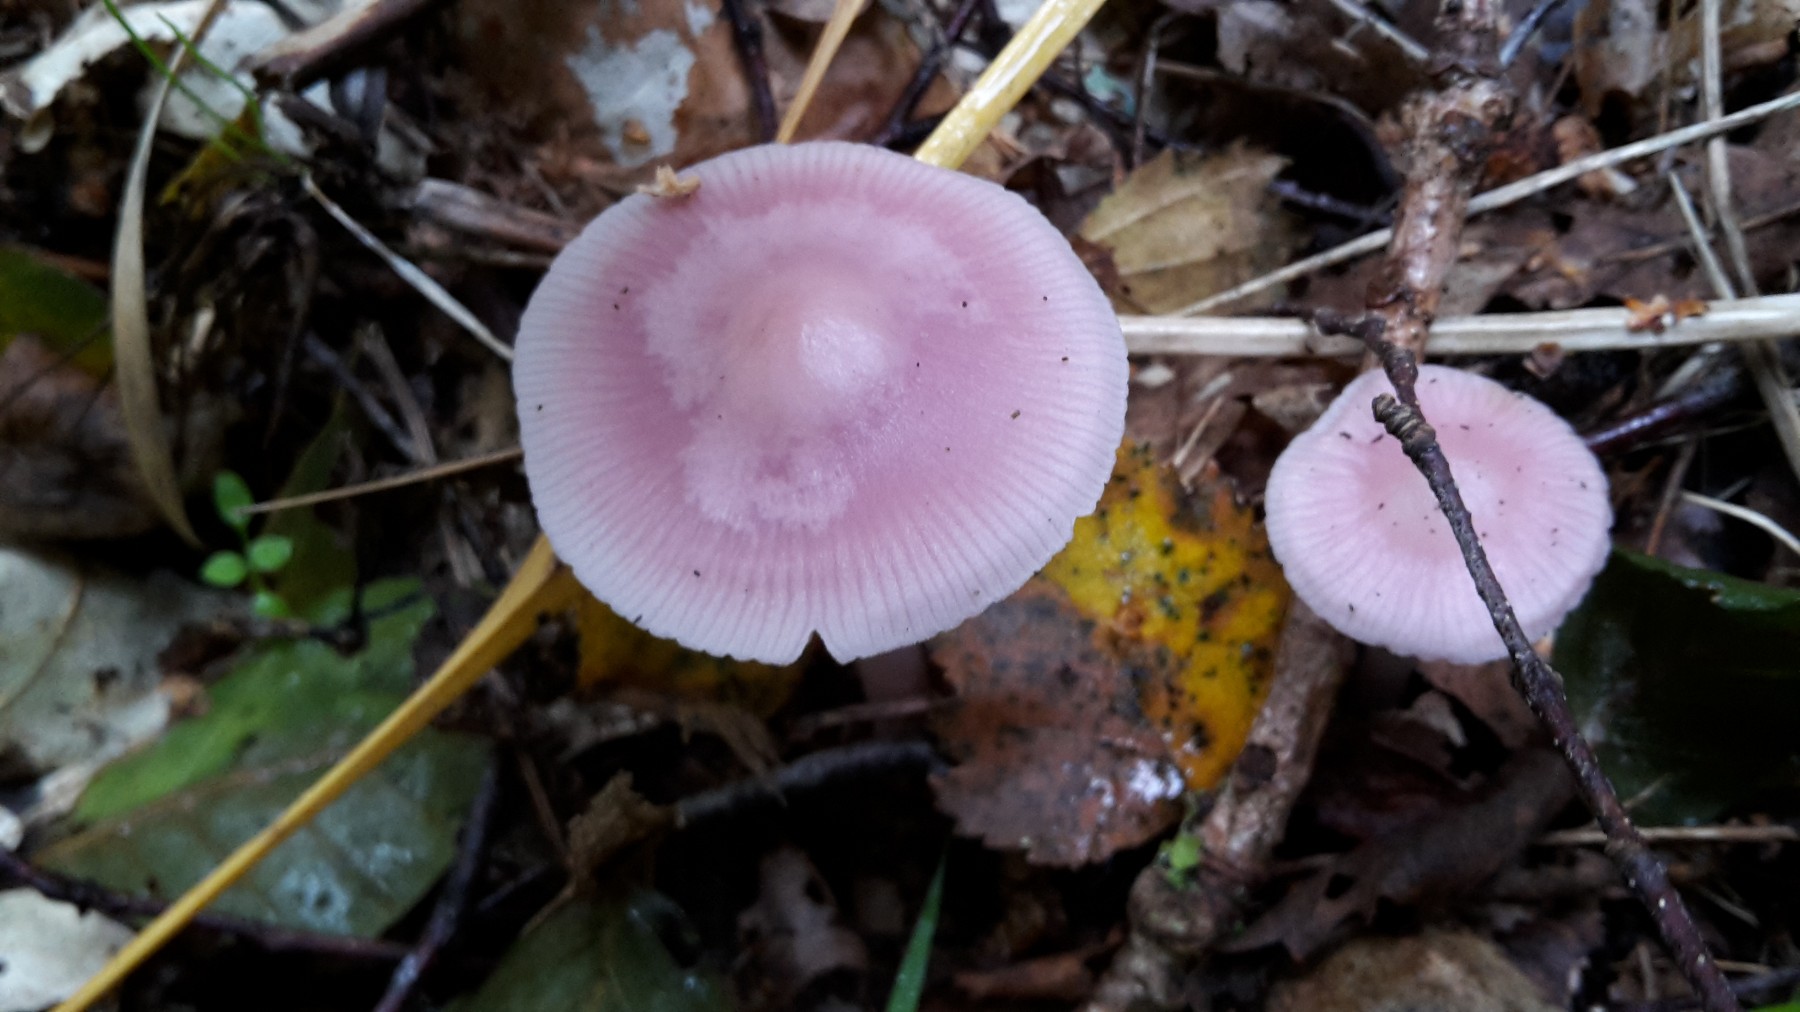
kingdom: Fungi
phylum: Basidiomycota
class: Agaricomycetes
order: Agaricales
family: Mycenaceae
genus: Mycena
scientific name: Mycena rosea
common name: rosa huesvamp
